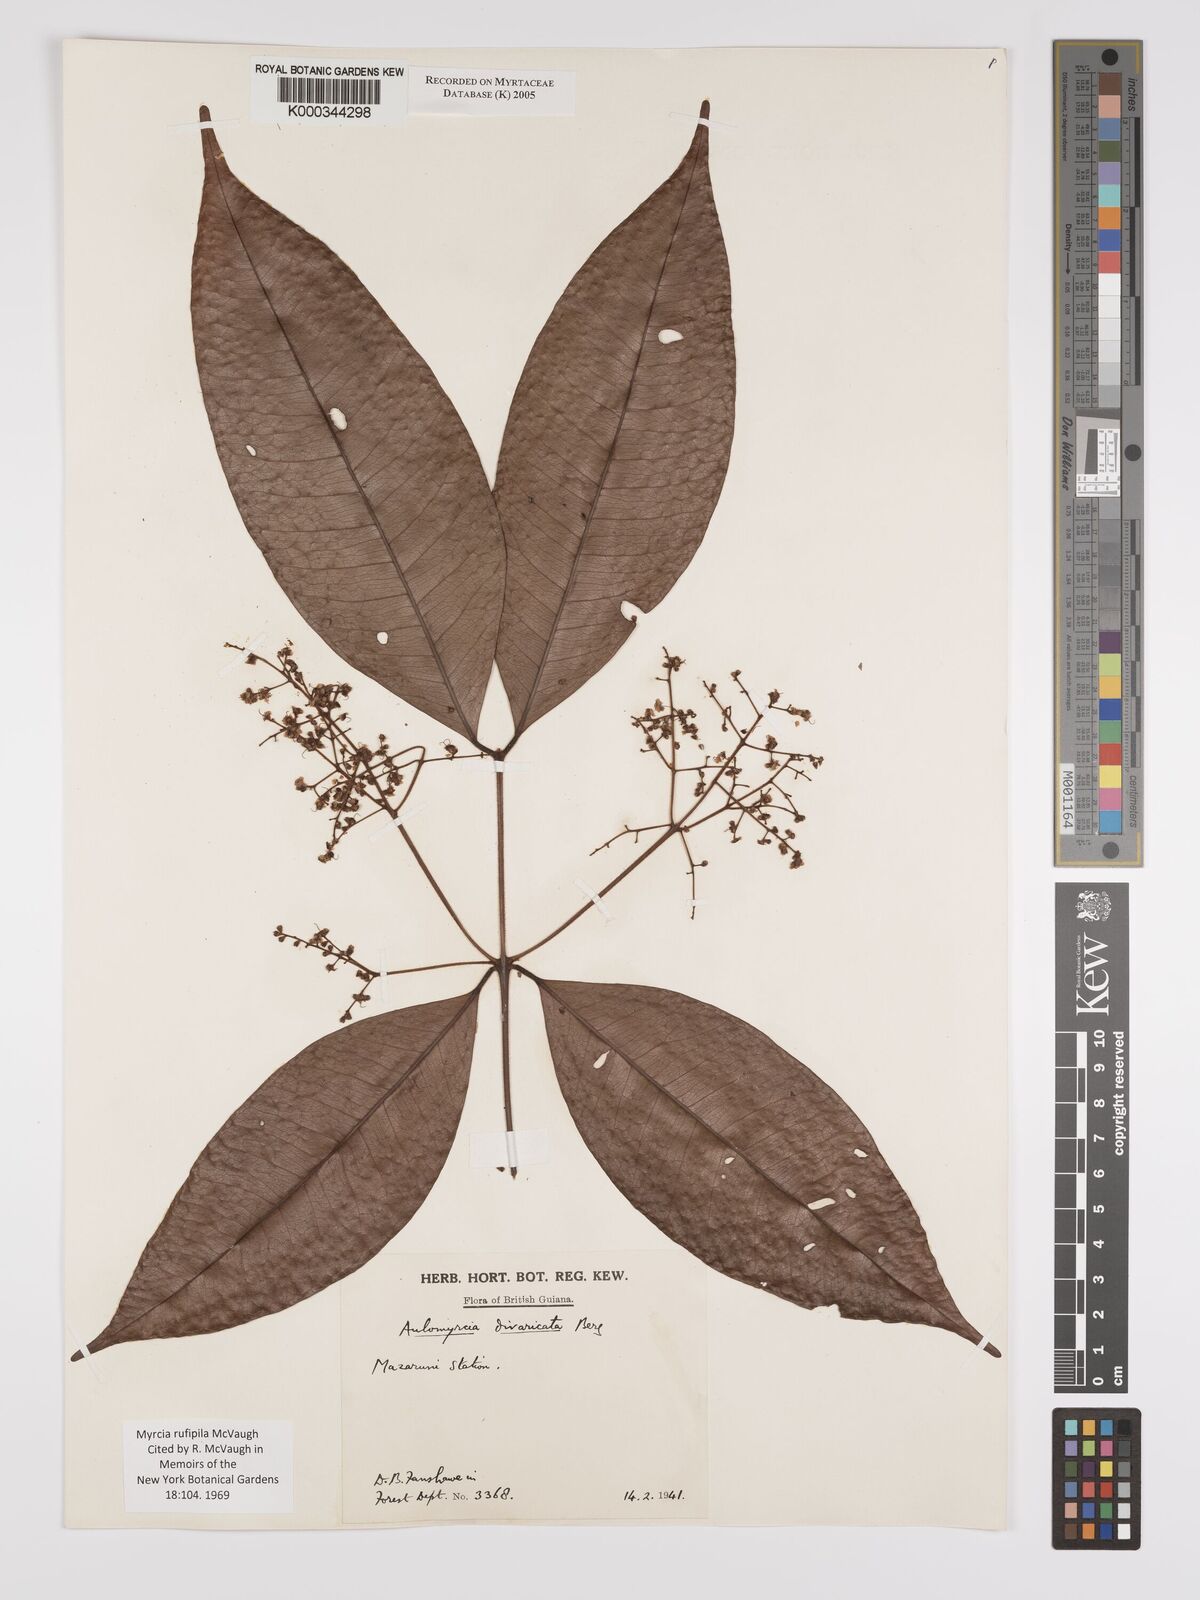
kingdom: Plantae
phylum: Tracheophyta
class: Magnoliopsida
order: Myrtales
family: Myrtaceae
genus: Myrcia
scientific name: Myrcia rufipila
